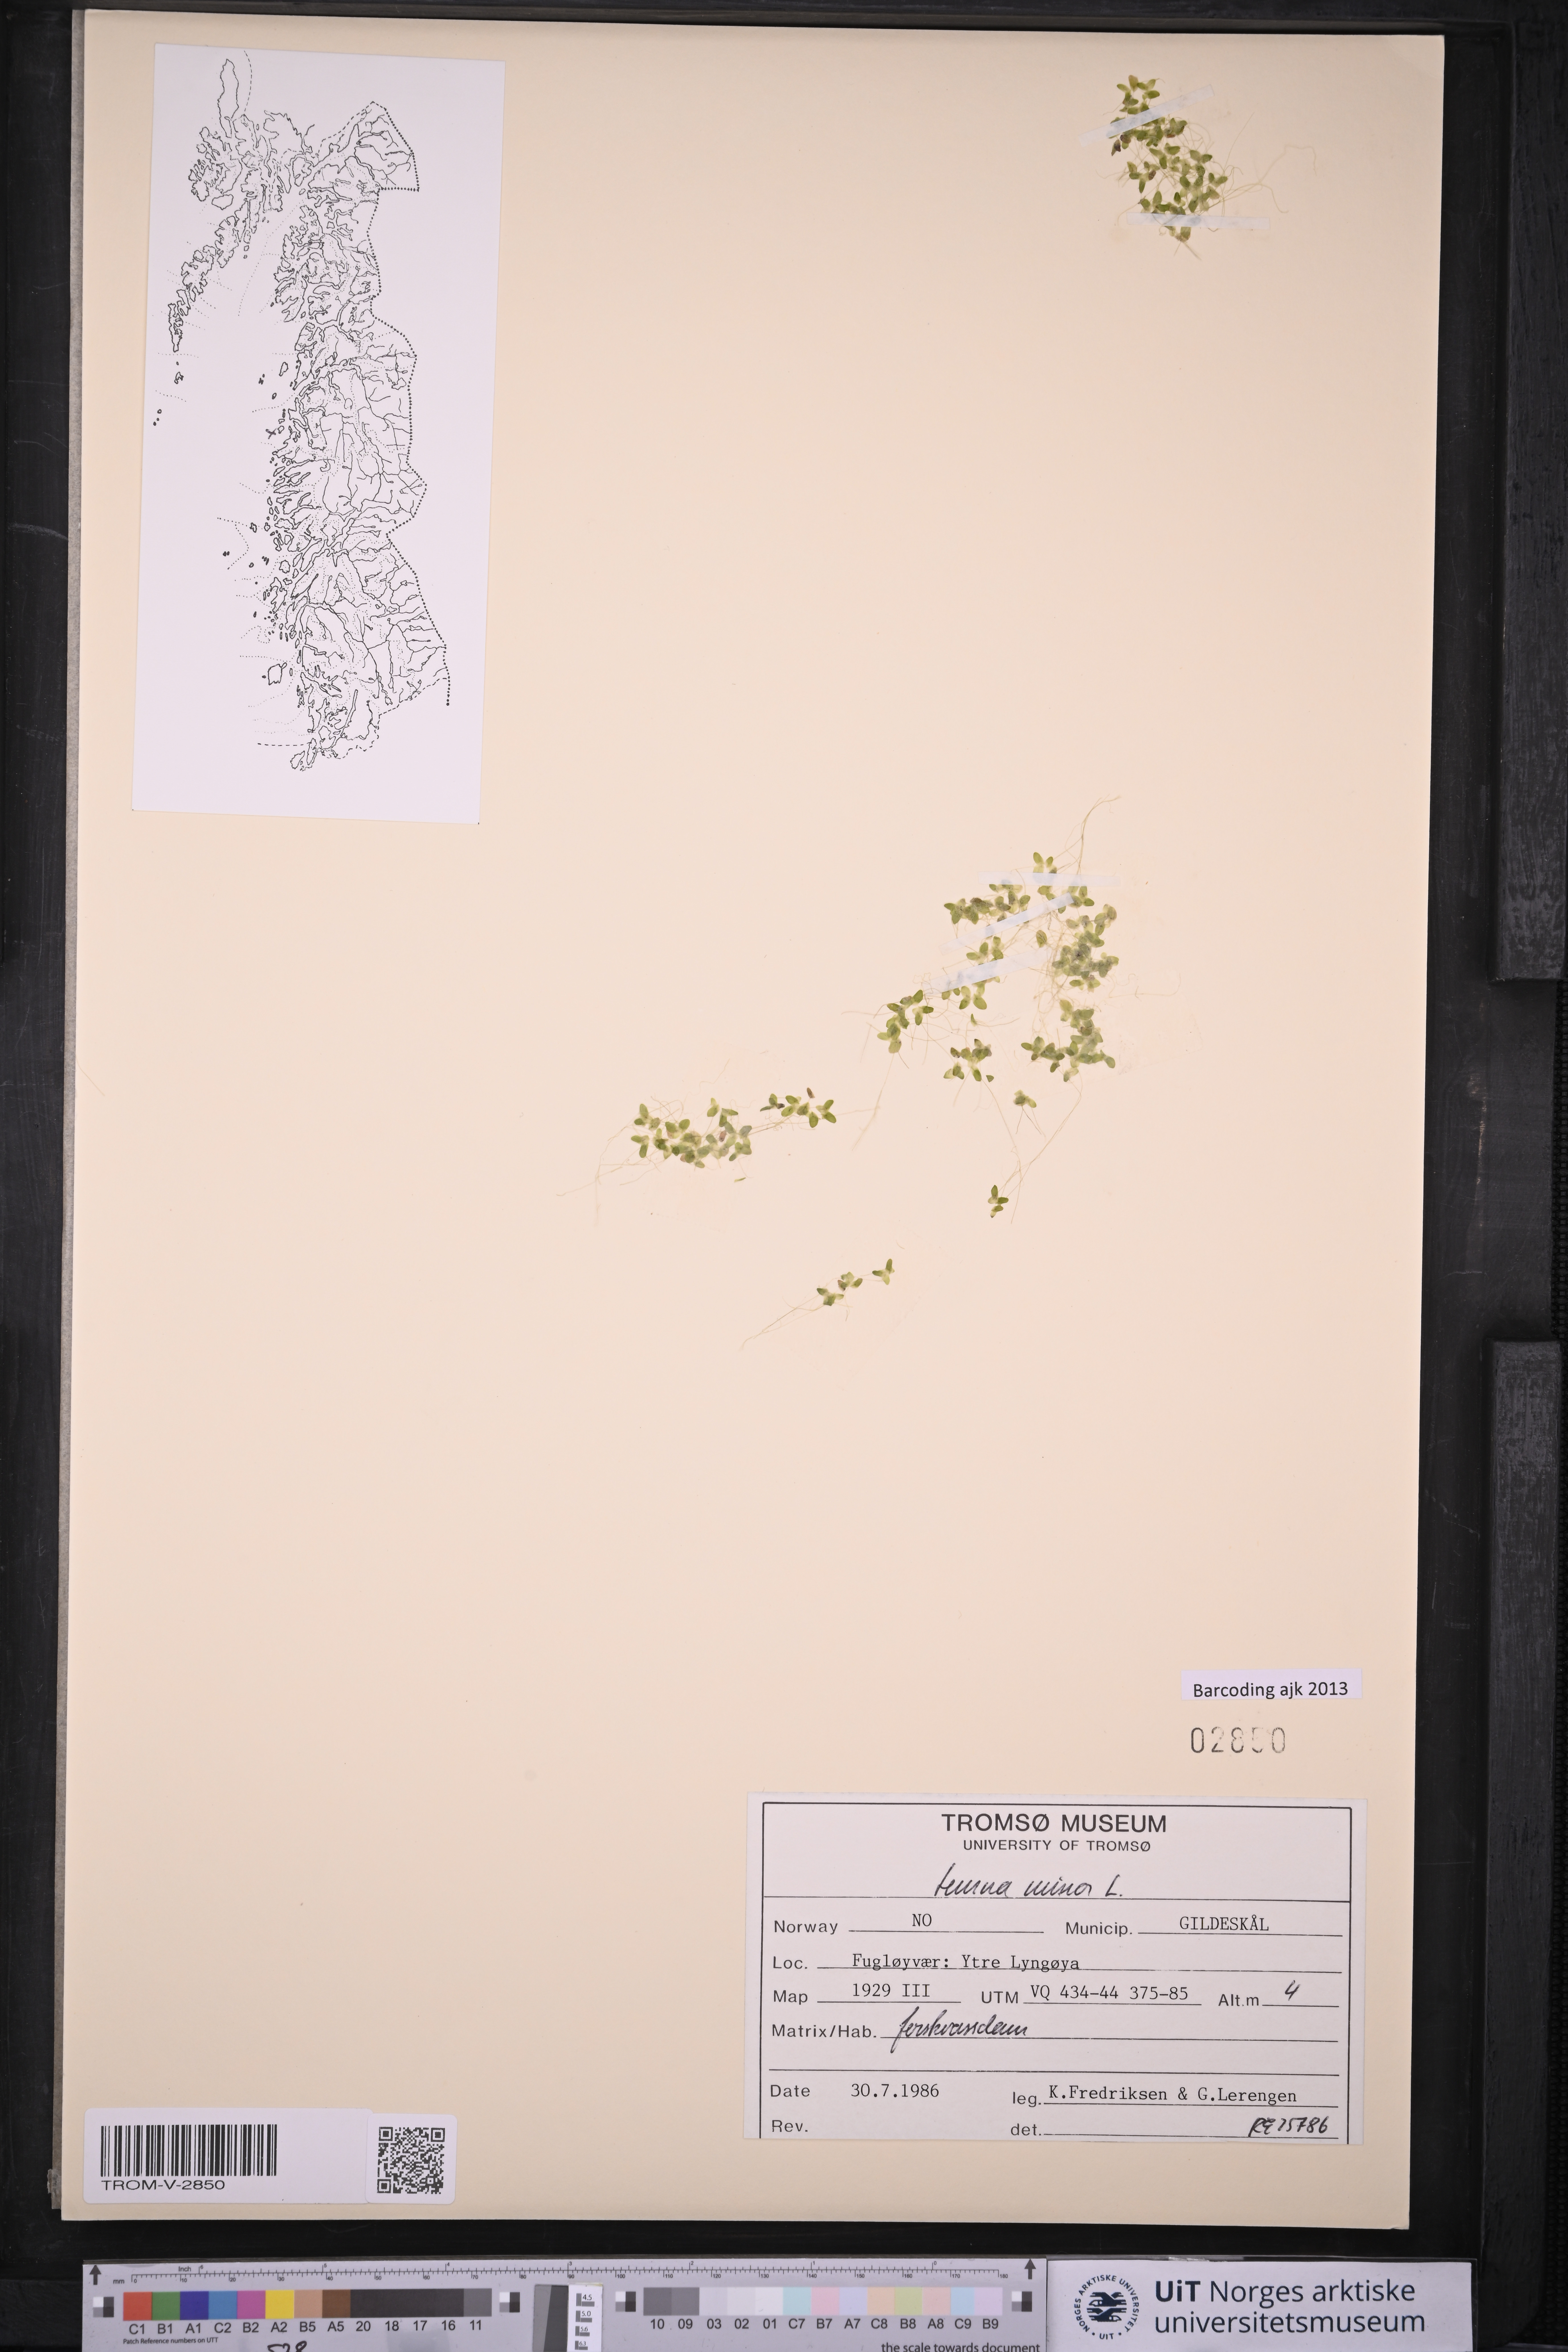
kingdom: Plantae
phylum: Tracheophyta
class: Liliopsida
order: Alismatales
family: Araceae
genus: Lemna
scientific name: Lemna minor
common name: Common duckweed
